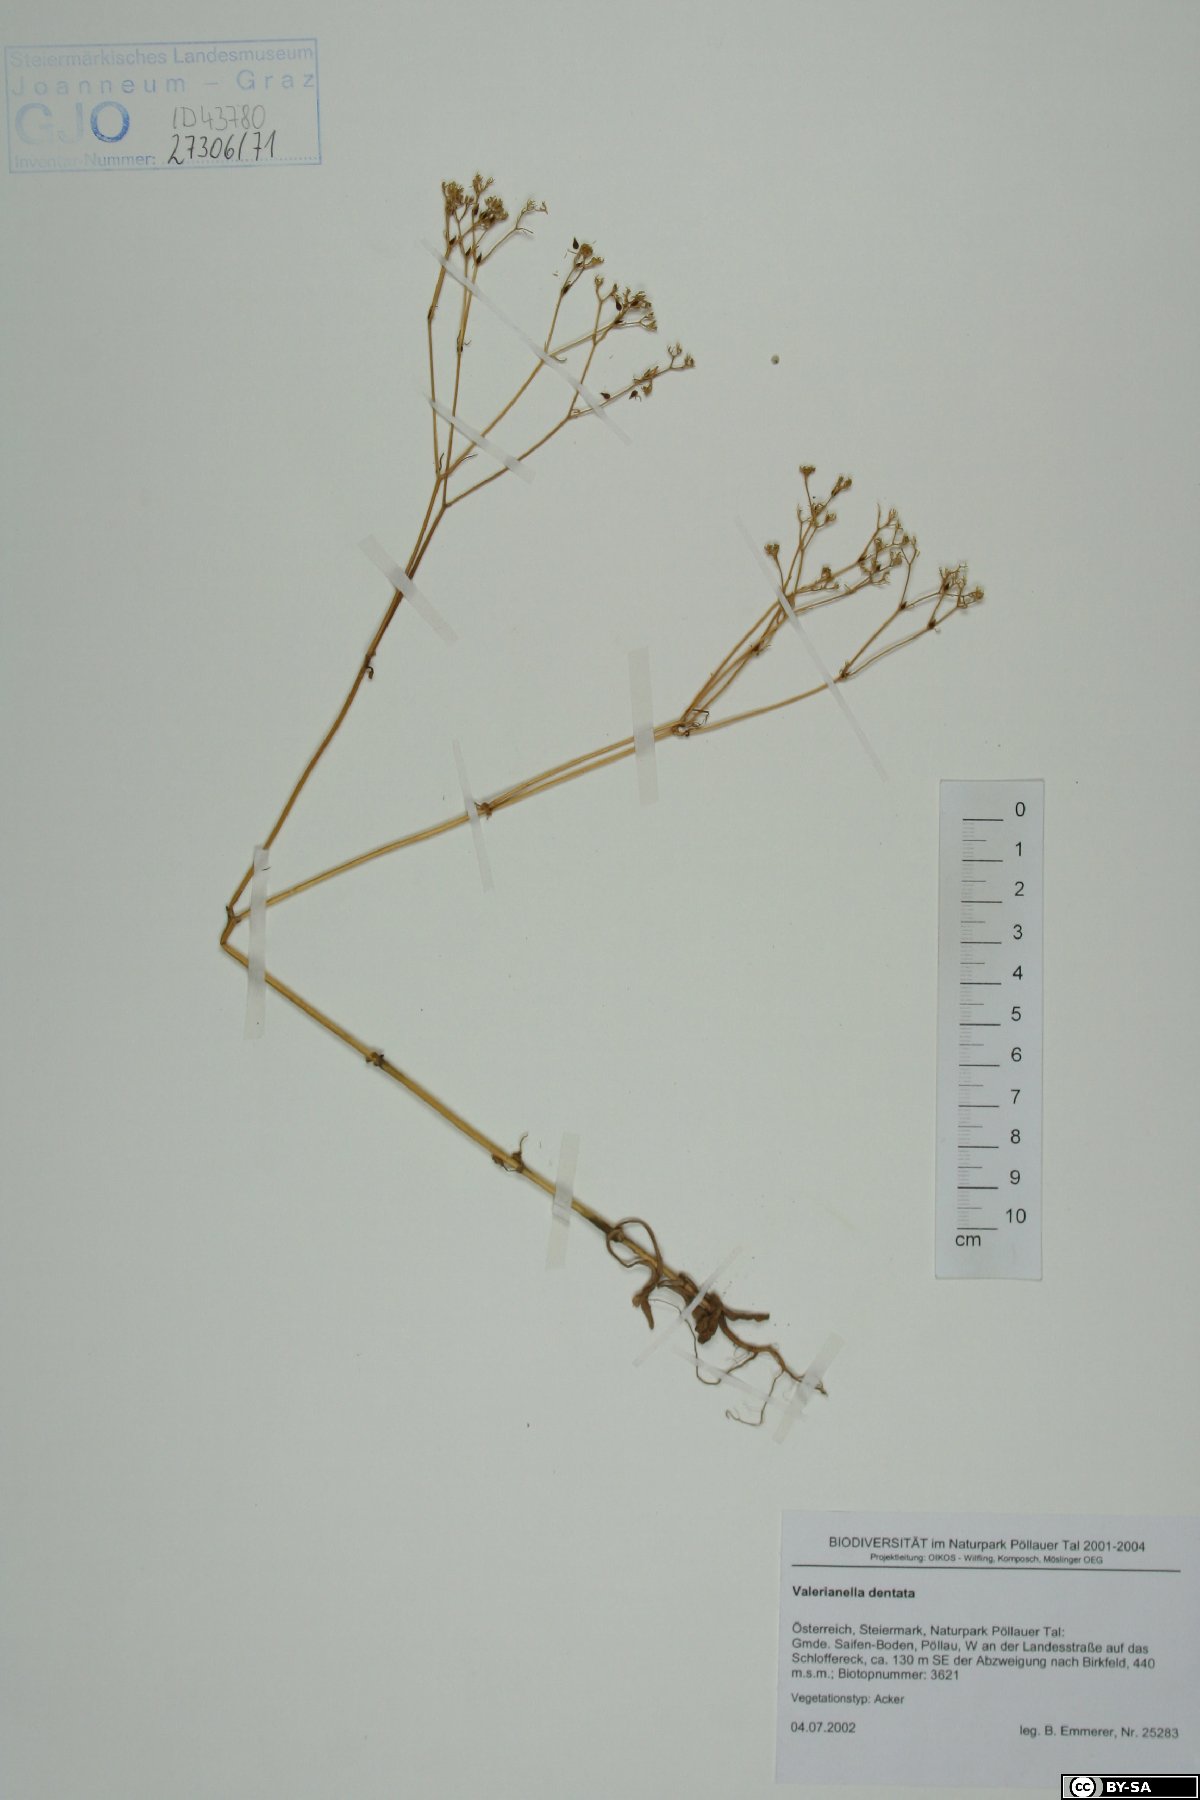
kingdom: Plantae
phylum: Tracheophyta
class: Magnoliopsida
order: Dipsacales
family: Caprifoliaceae
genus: Valerianella
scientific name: Valerianella dentata
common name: Narrow-fruited cornsalad
